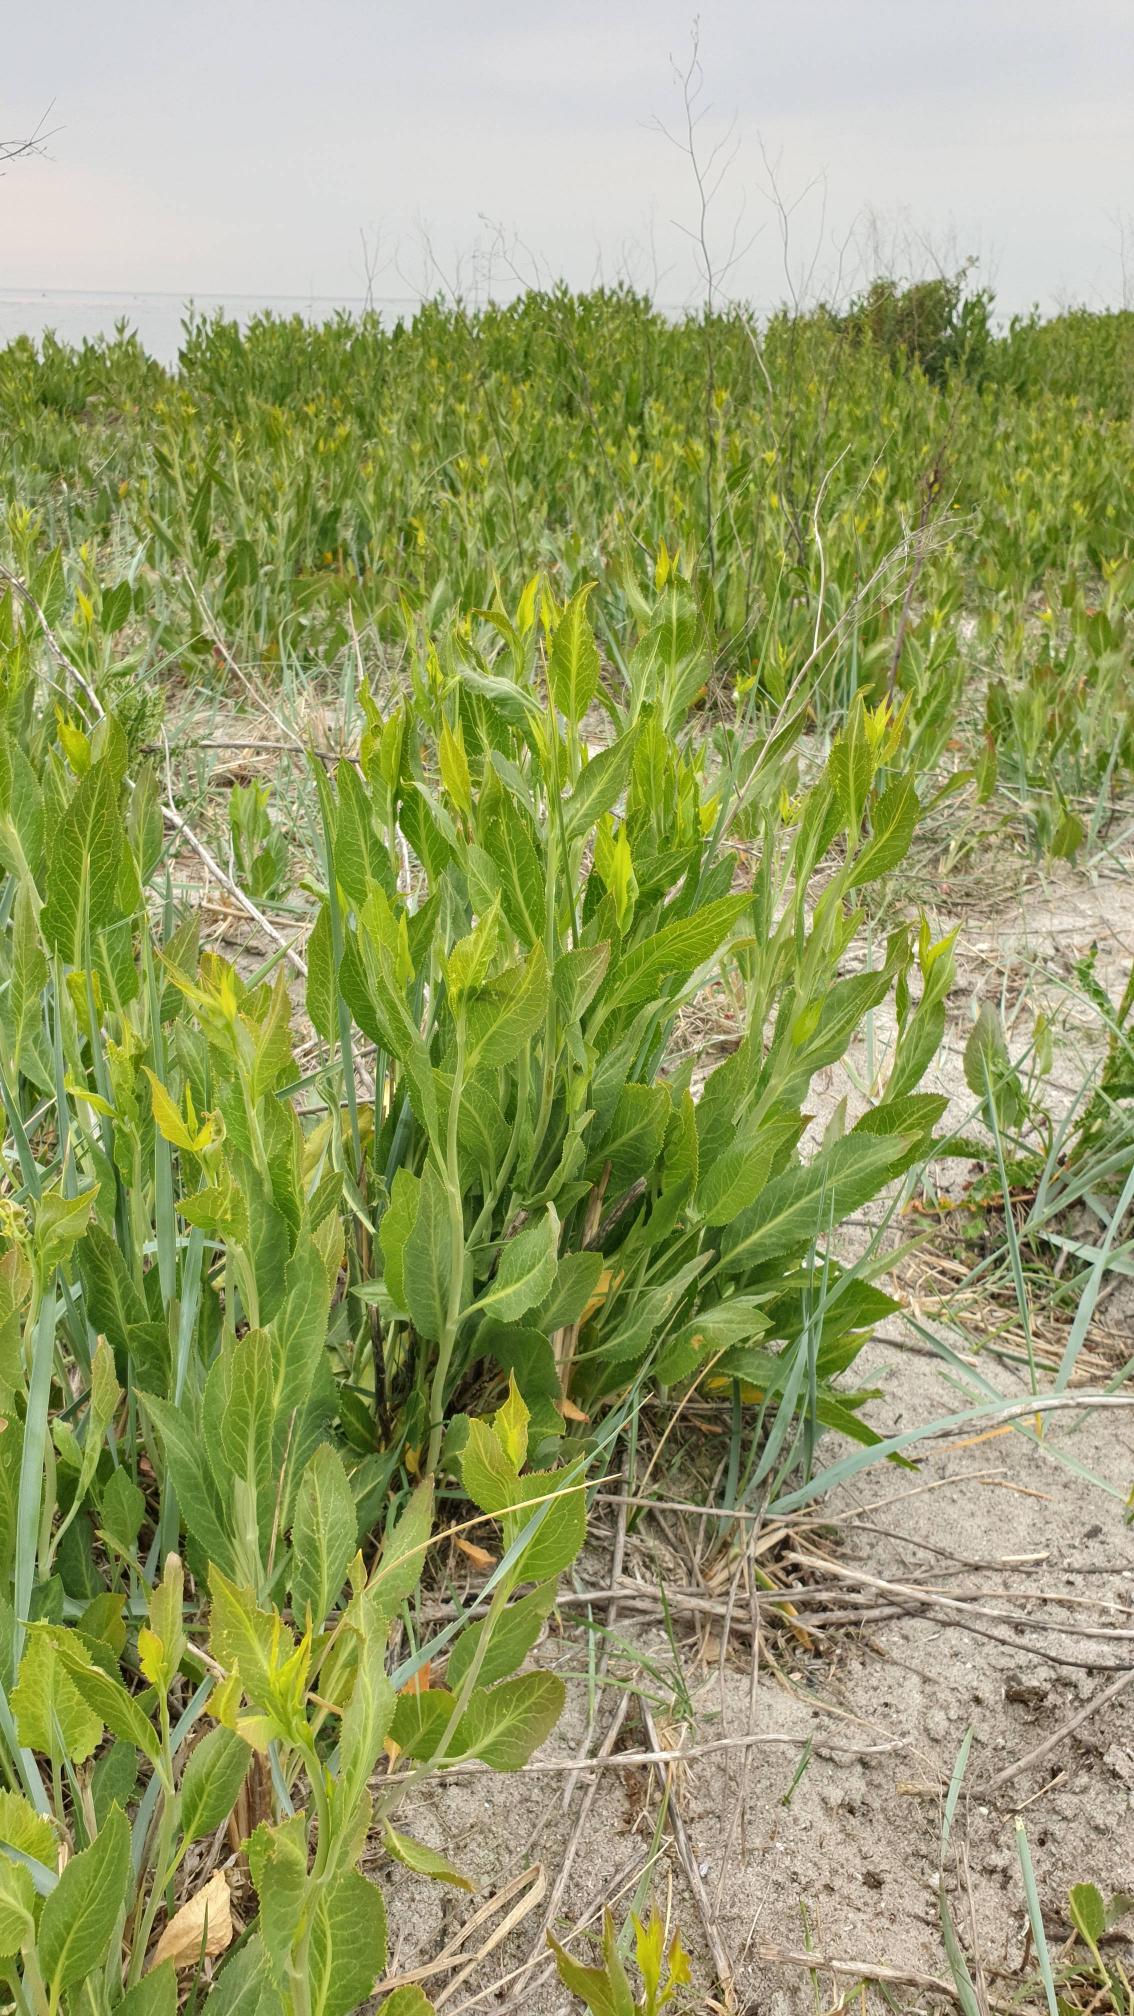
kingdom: Plantae
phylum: Tracheophyta
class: Magnoliopsida
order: Brassicales
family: Brassicaceae
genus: Lepidium
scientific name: Lepidium latifolium
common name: Strand-karse
